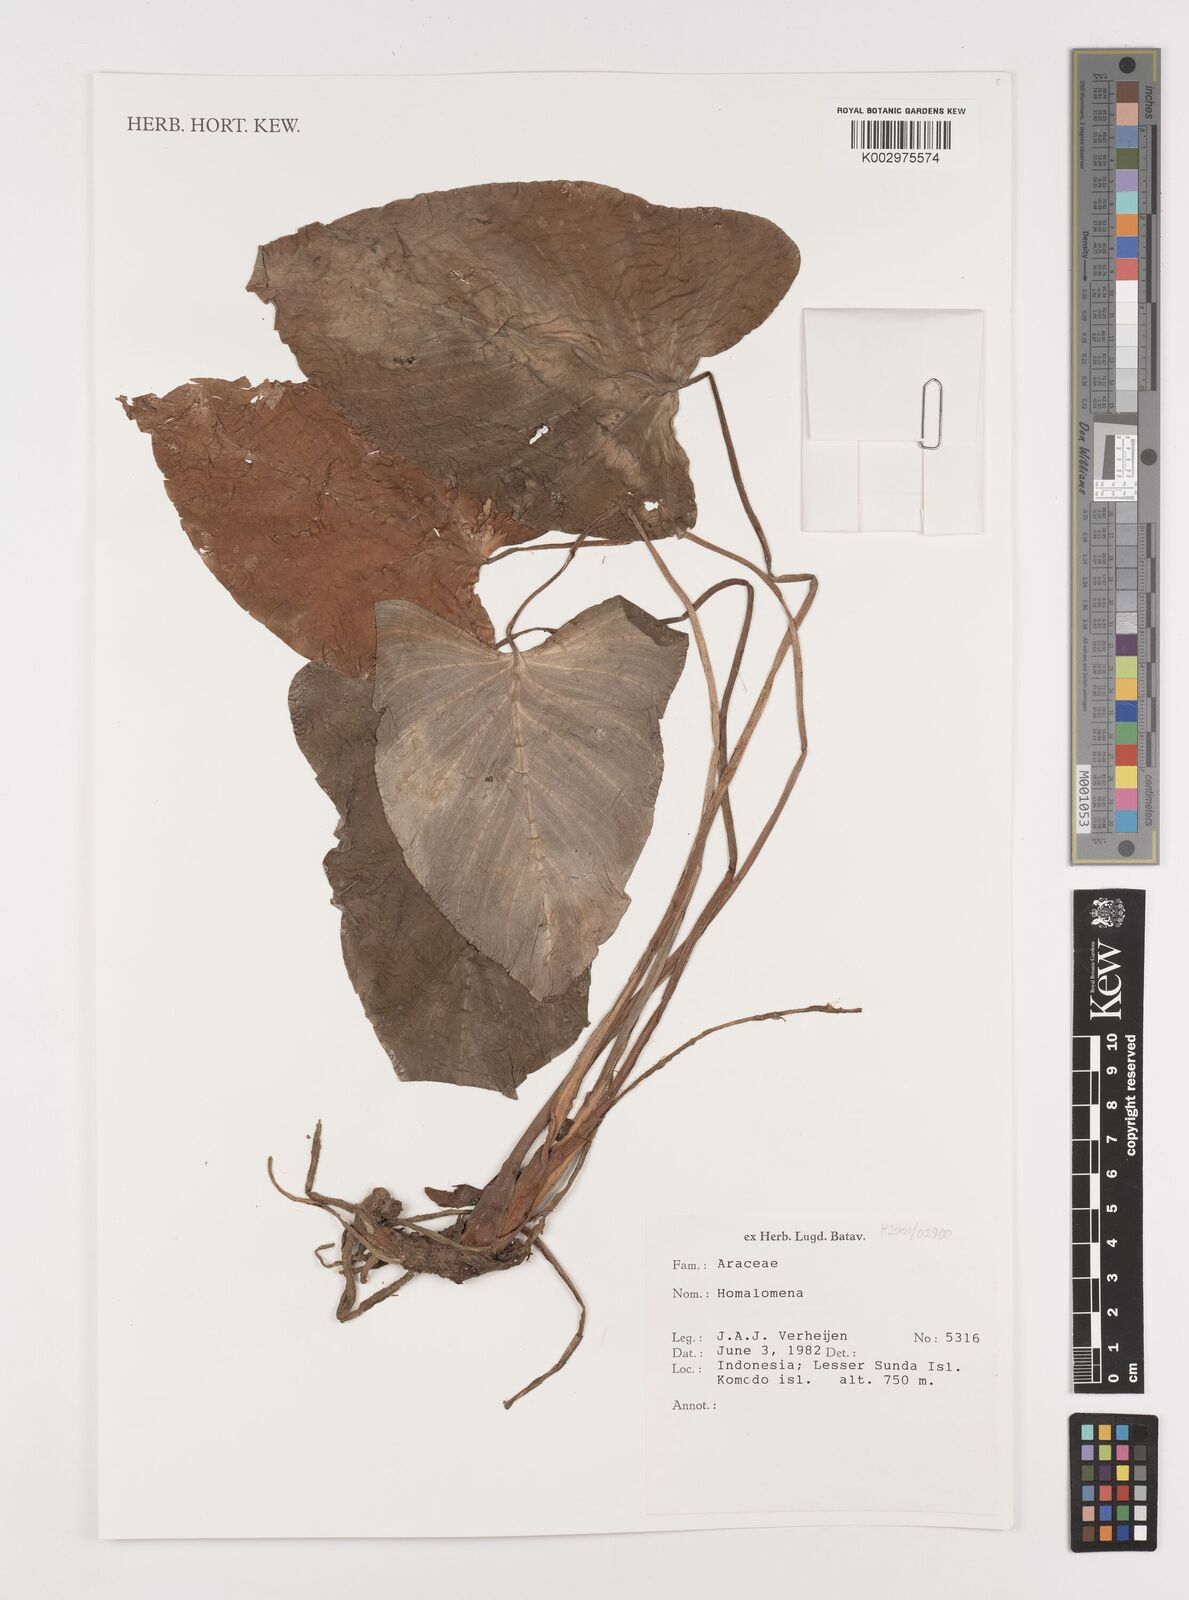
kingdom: Plantae
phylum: Tracheophyta
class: Liliopsida
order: Alismatales
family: Araceae
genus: Homalomena
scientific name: Homalomena
